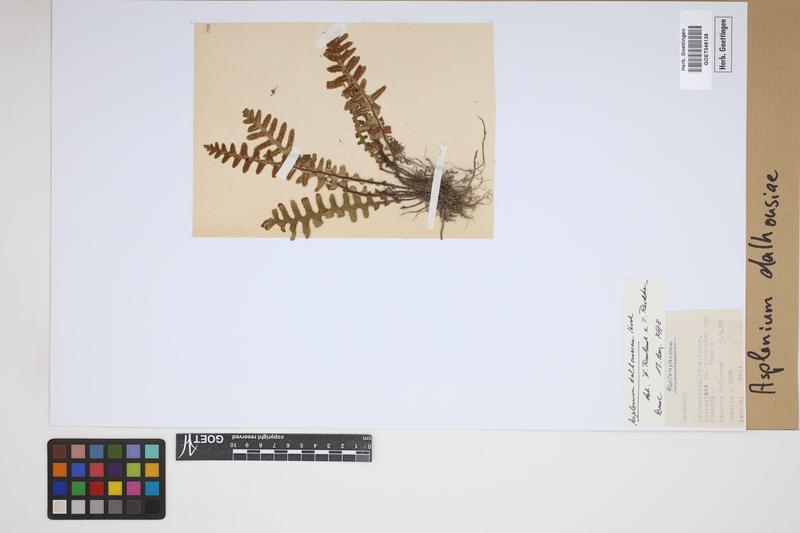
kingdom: Plantae
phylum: Tracheophyta
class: Polypodiopsida
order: Polypodiales
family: Aspleniaceae
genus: Asplenium
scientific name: Asplenium dalhousieae
